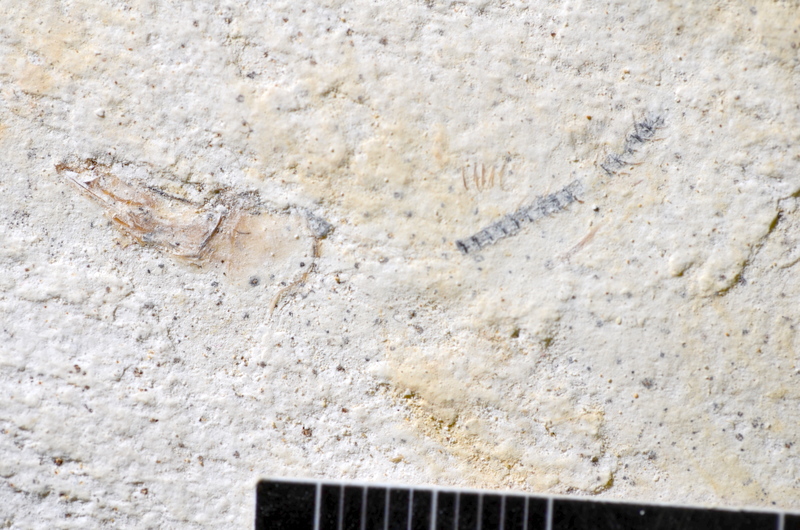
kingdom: Animalia
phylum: Chordata
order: Salmoniformes
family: Orthogonikleithridae
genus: Orthogonikleithrus
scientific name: Orthogonikleithrus hoelli
